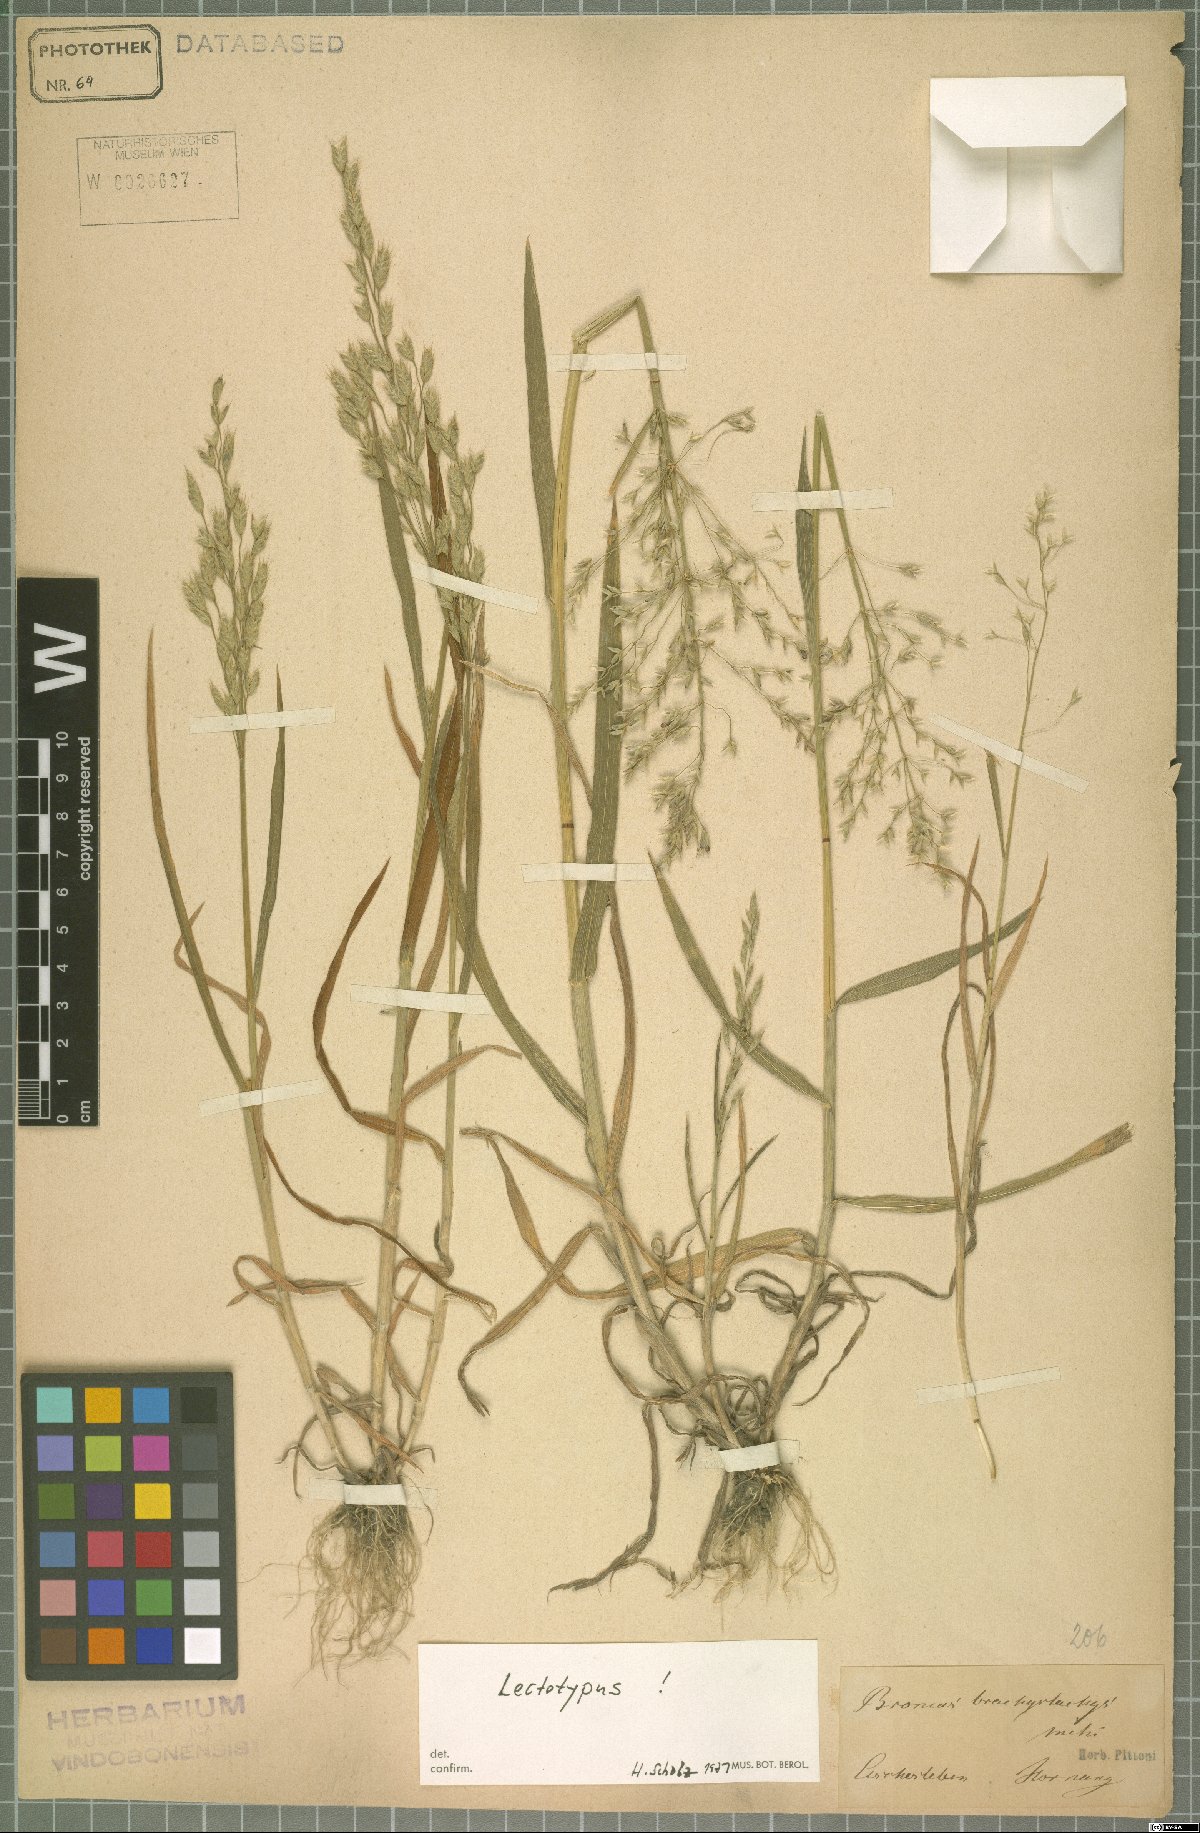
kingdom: Plantae
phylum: Tracheophyta
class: Liliopsida
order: Poales
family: Poaceae
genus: Bromus
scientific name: Bromus brachystachys
